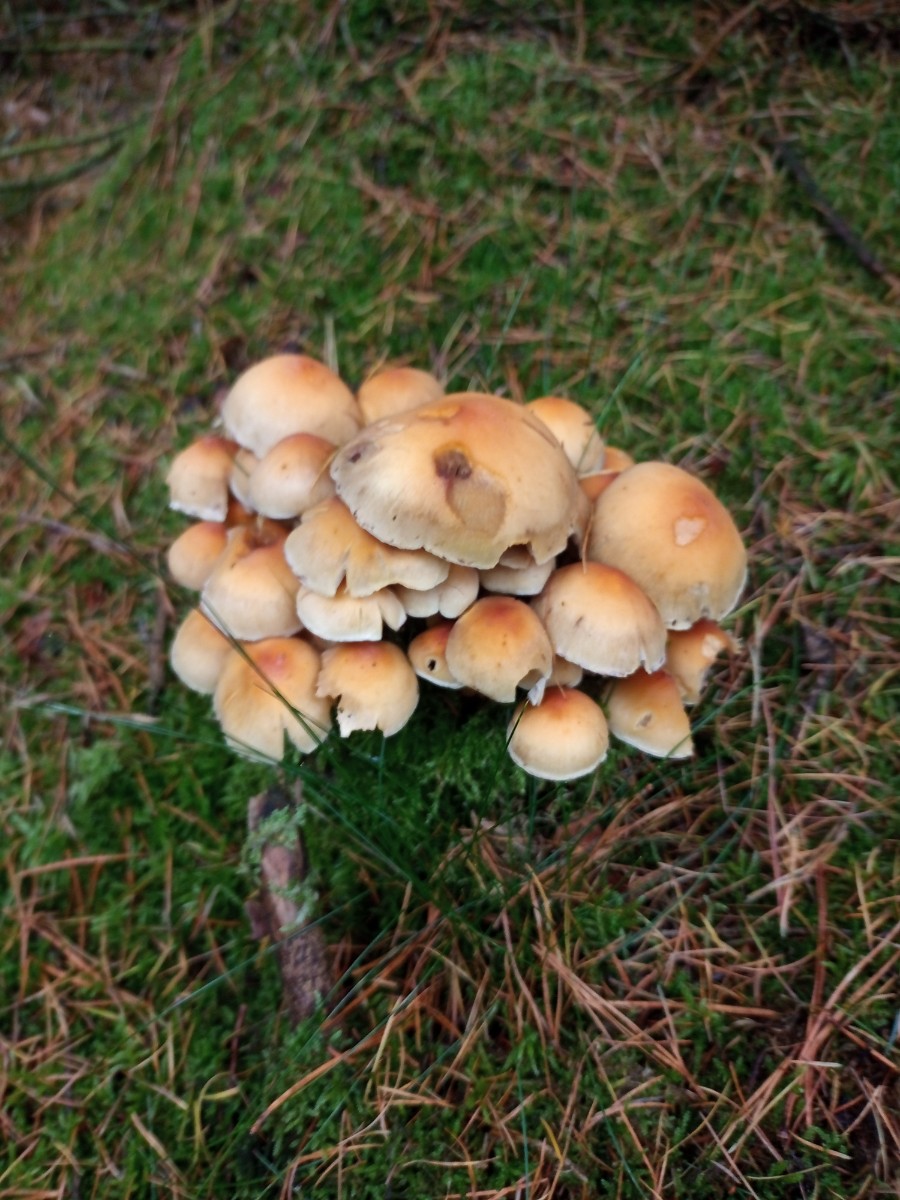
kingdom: Fungi
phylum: Basidiomycota
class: Agaricomycetes
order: Agaricales
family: Strophariaceae
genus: Hypholoma
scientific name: Hypholoma capnoides
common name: gran-svovlhat
